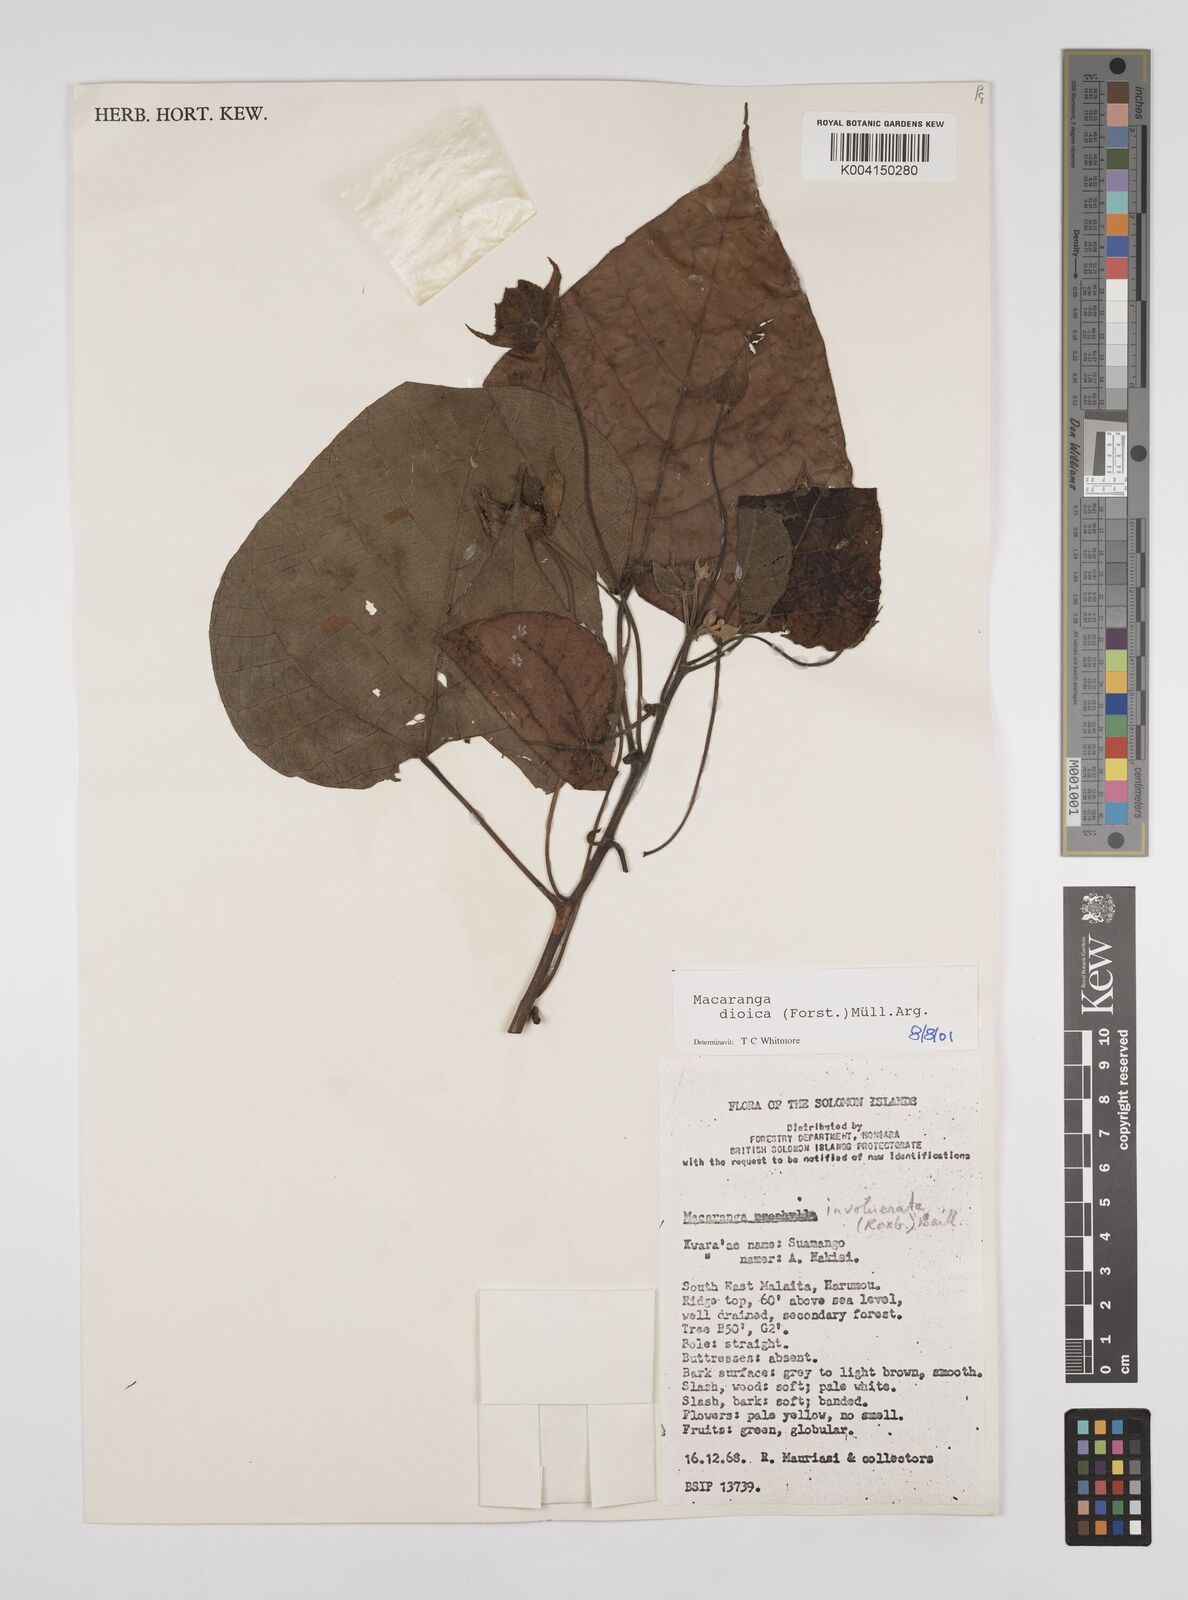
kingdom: Plantae
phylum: Tracheophyta
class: Magnoliopsida
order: Malpighiales
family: Euphorbiaceae
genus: Macaranga
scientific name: Macaranga dioica
